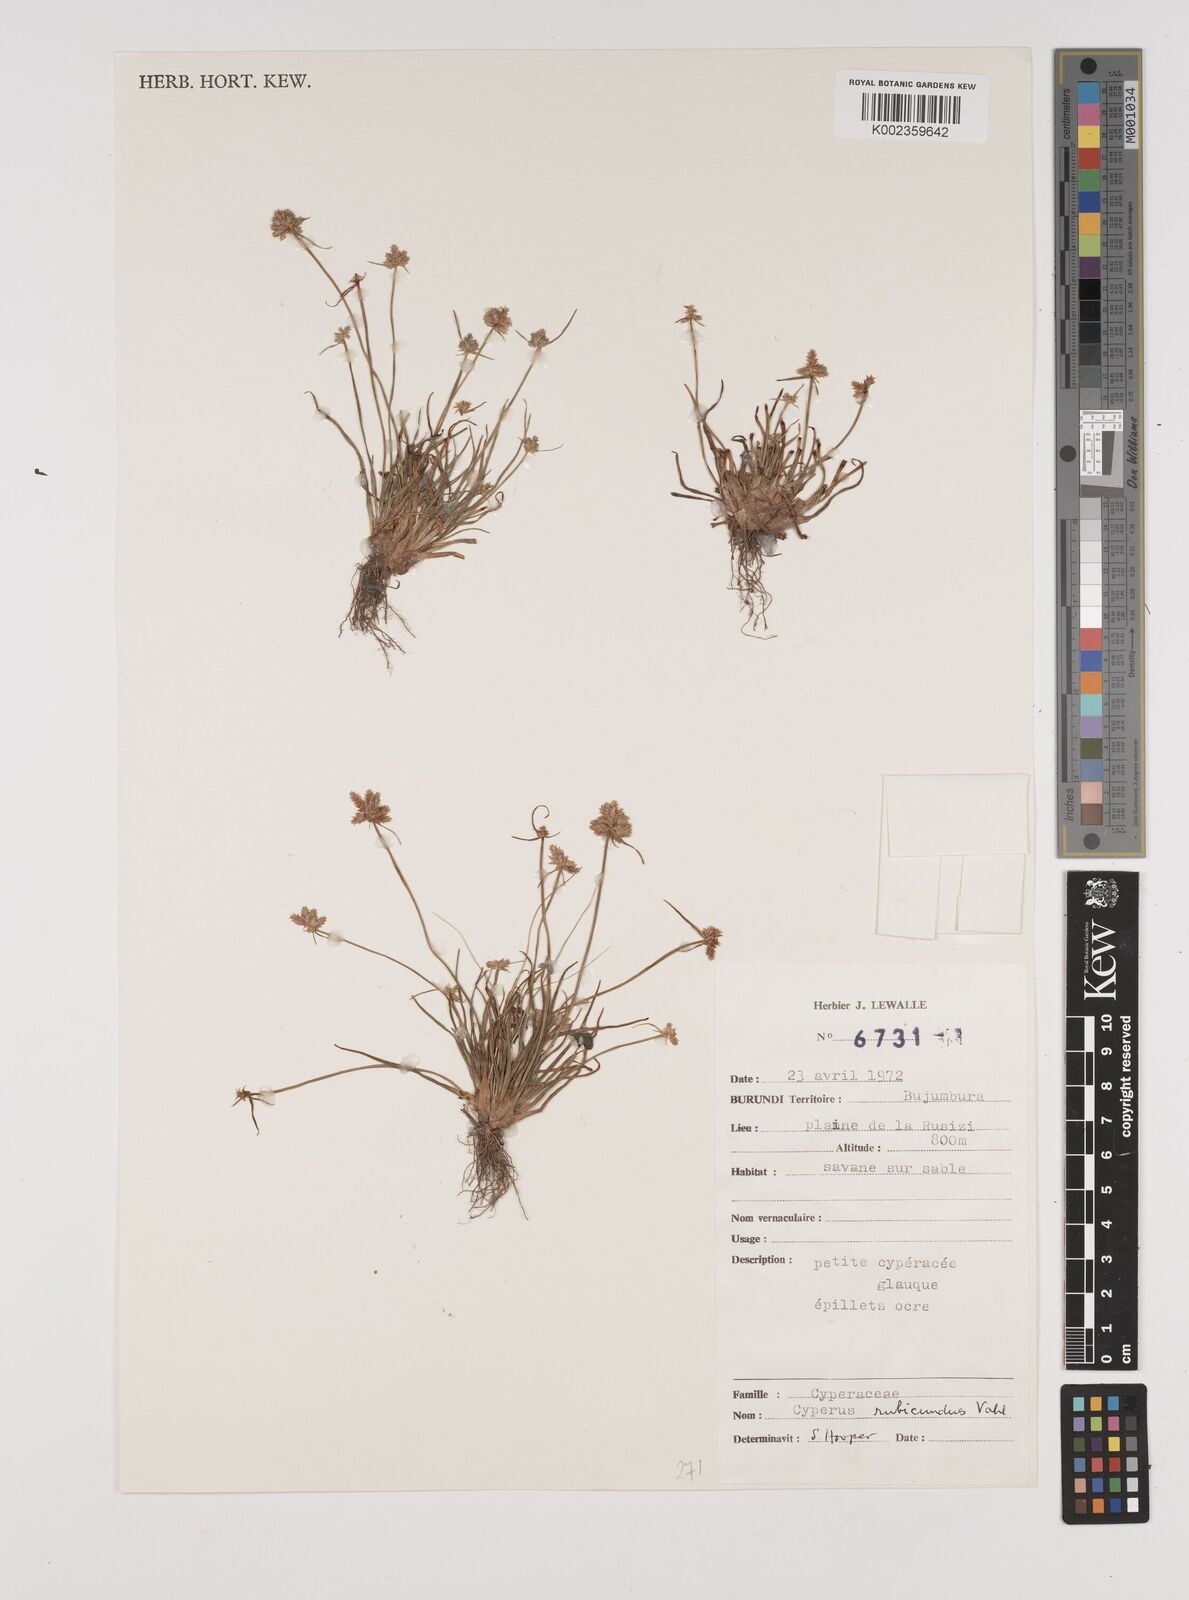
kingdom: Plantae
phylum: Tracheophyta
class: Liliopsida
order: Poales
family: Cyperaceae
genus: Cyperus
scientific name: Cyperus rubicundus
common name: Coco-grass
